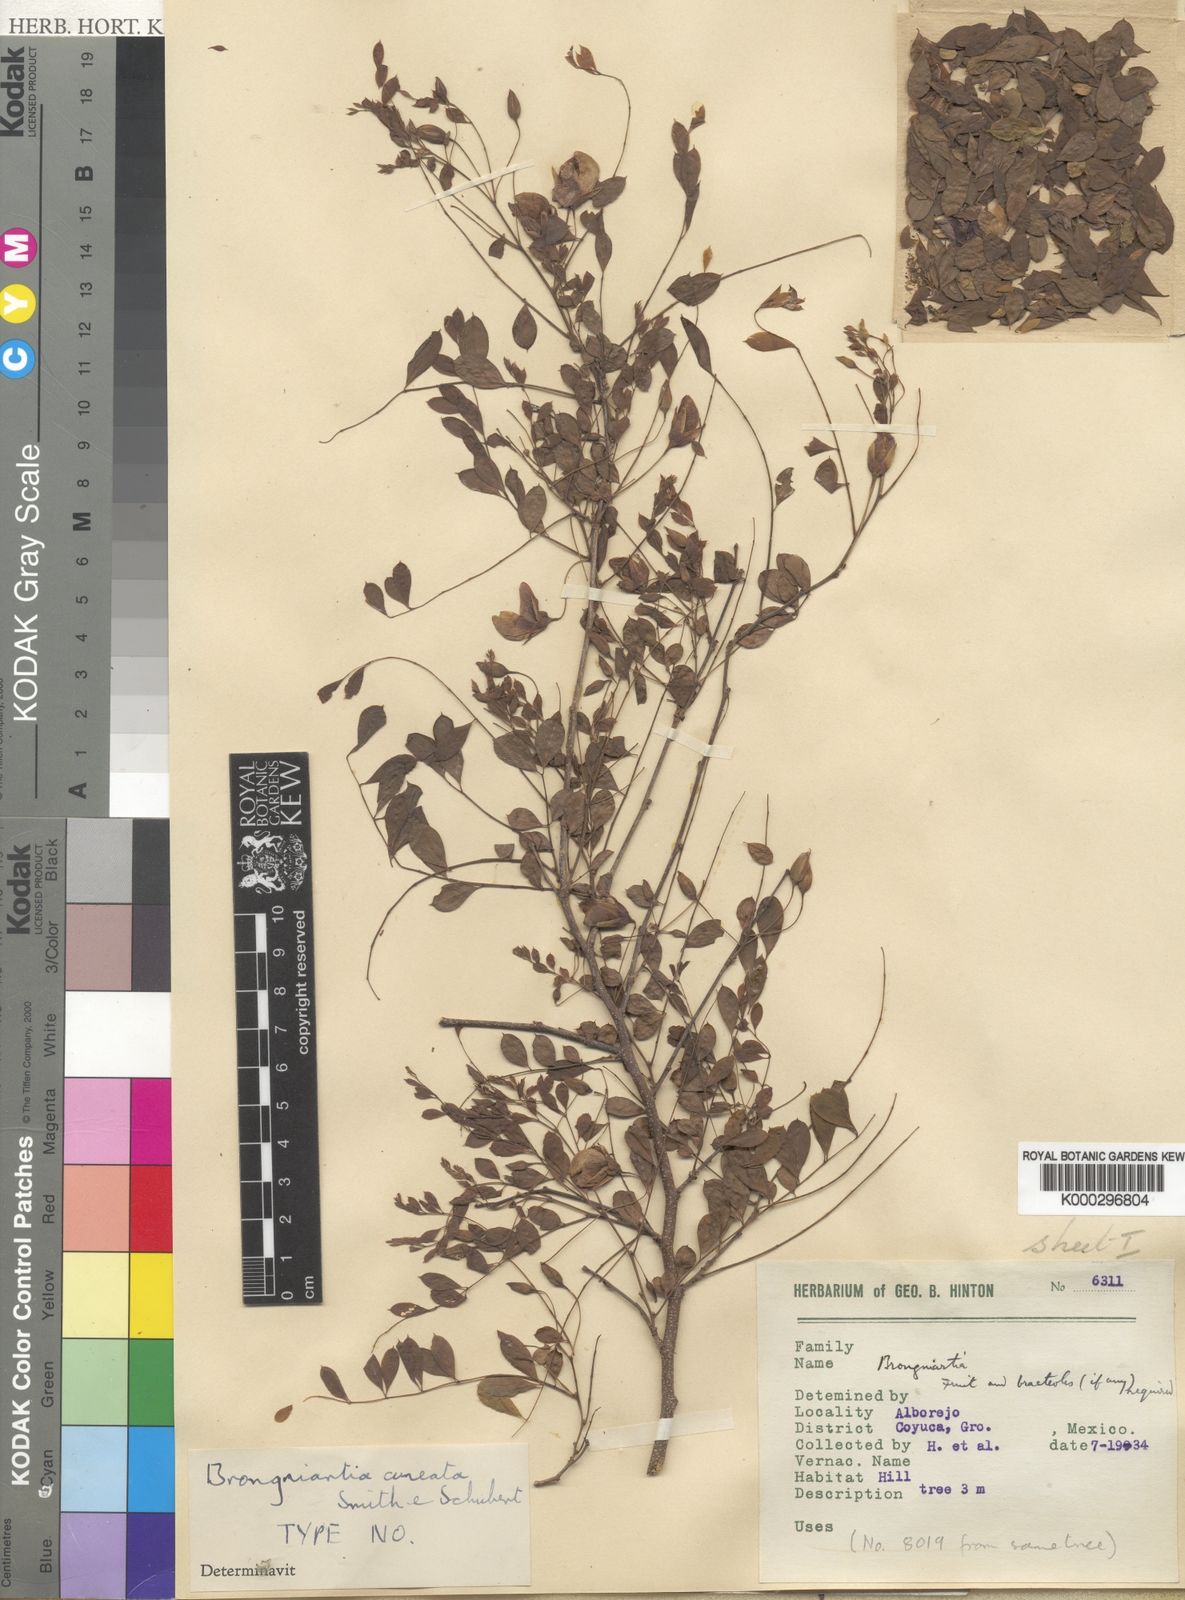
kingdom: Plantae
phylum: Tracheophyta
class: Magnoliopsida
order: Fabales
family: Fabaceae
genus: Brongniartia
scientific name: Brongniartia cuneata
